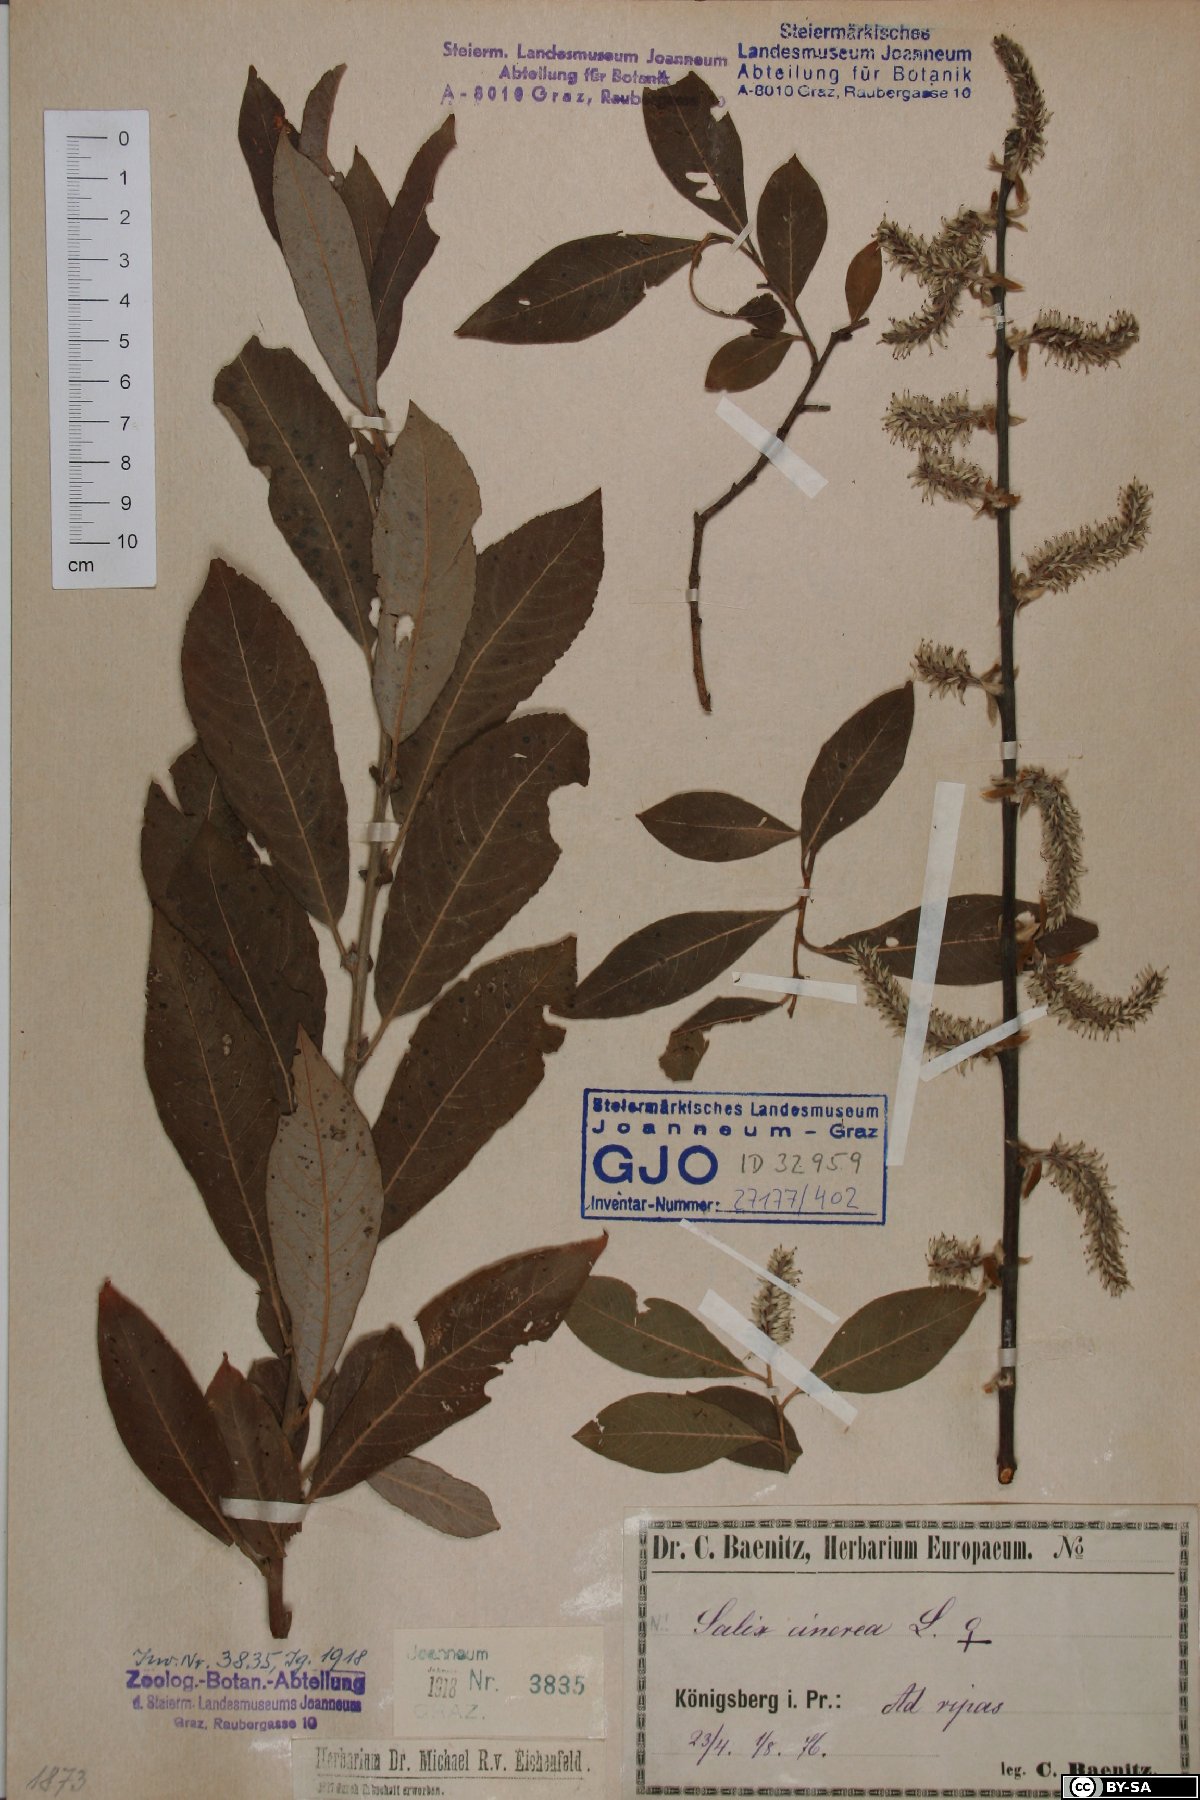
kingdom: Plantae
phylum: Tracheophyta
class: Magnoliopsida
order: Malpighiales
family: Salicaceae
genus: Salix
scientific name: Salix cinerea
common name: Common sallow
